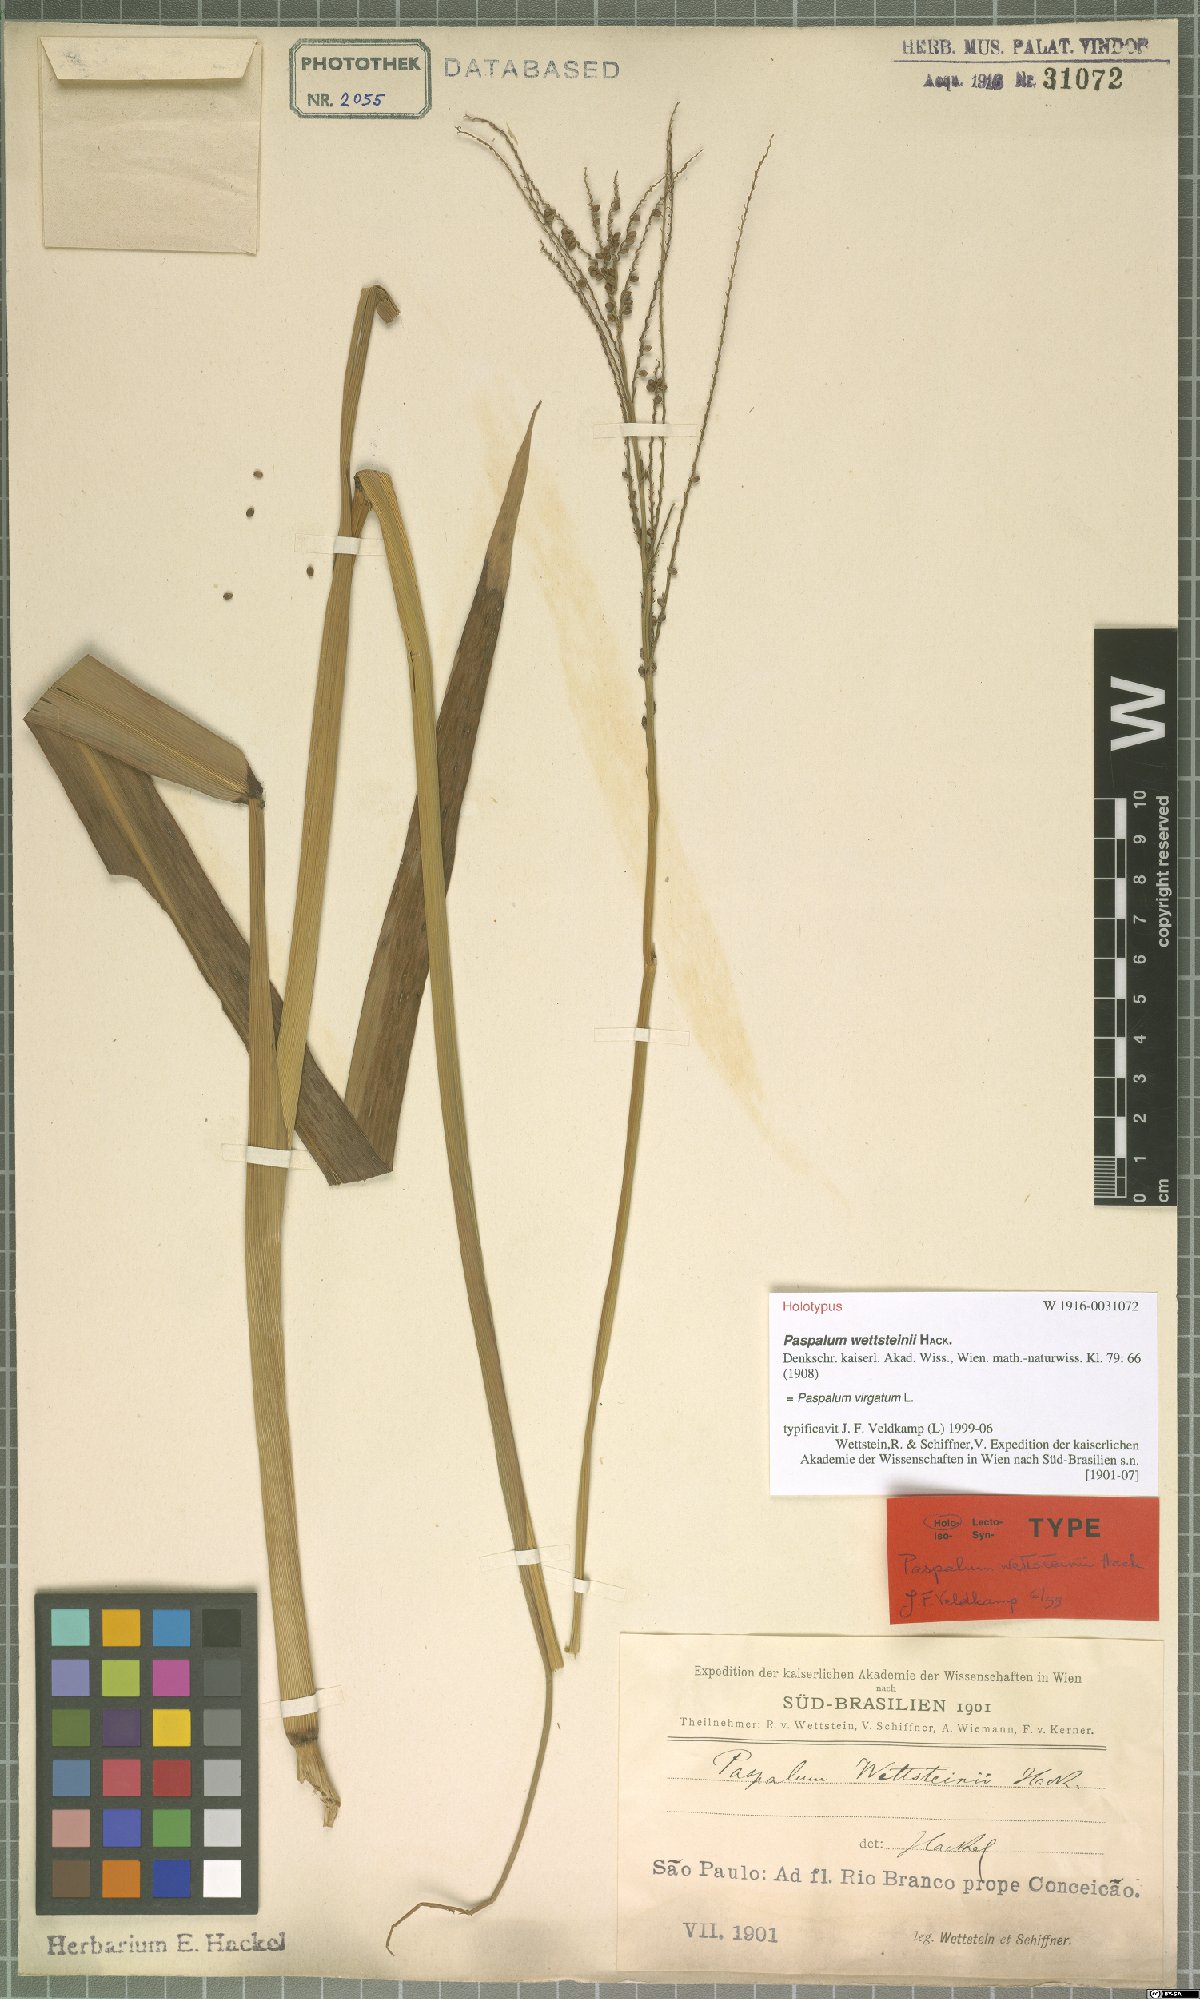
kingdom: Plantae
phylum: Tracheophyta
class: Liliopsida
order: Poales
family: Poaceae
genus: Paspalum
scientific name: Paspalum virgatum
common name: Talquezal
